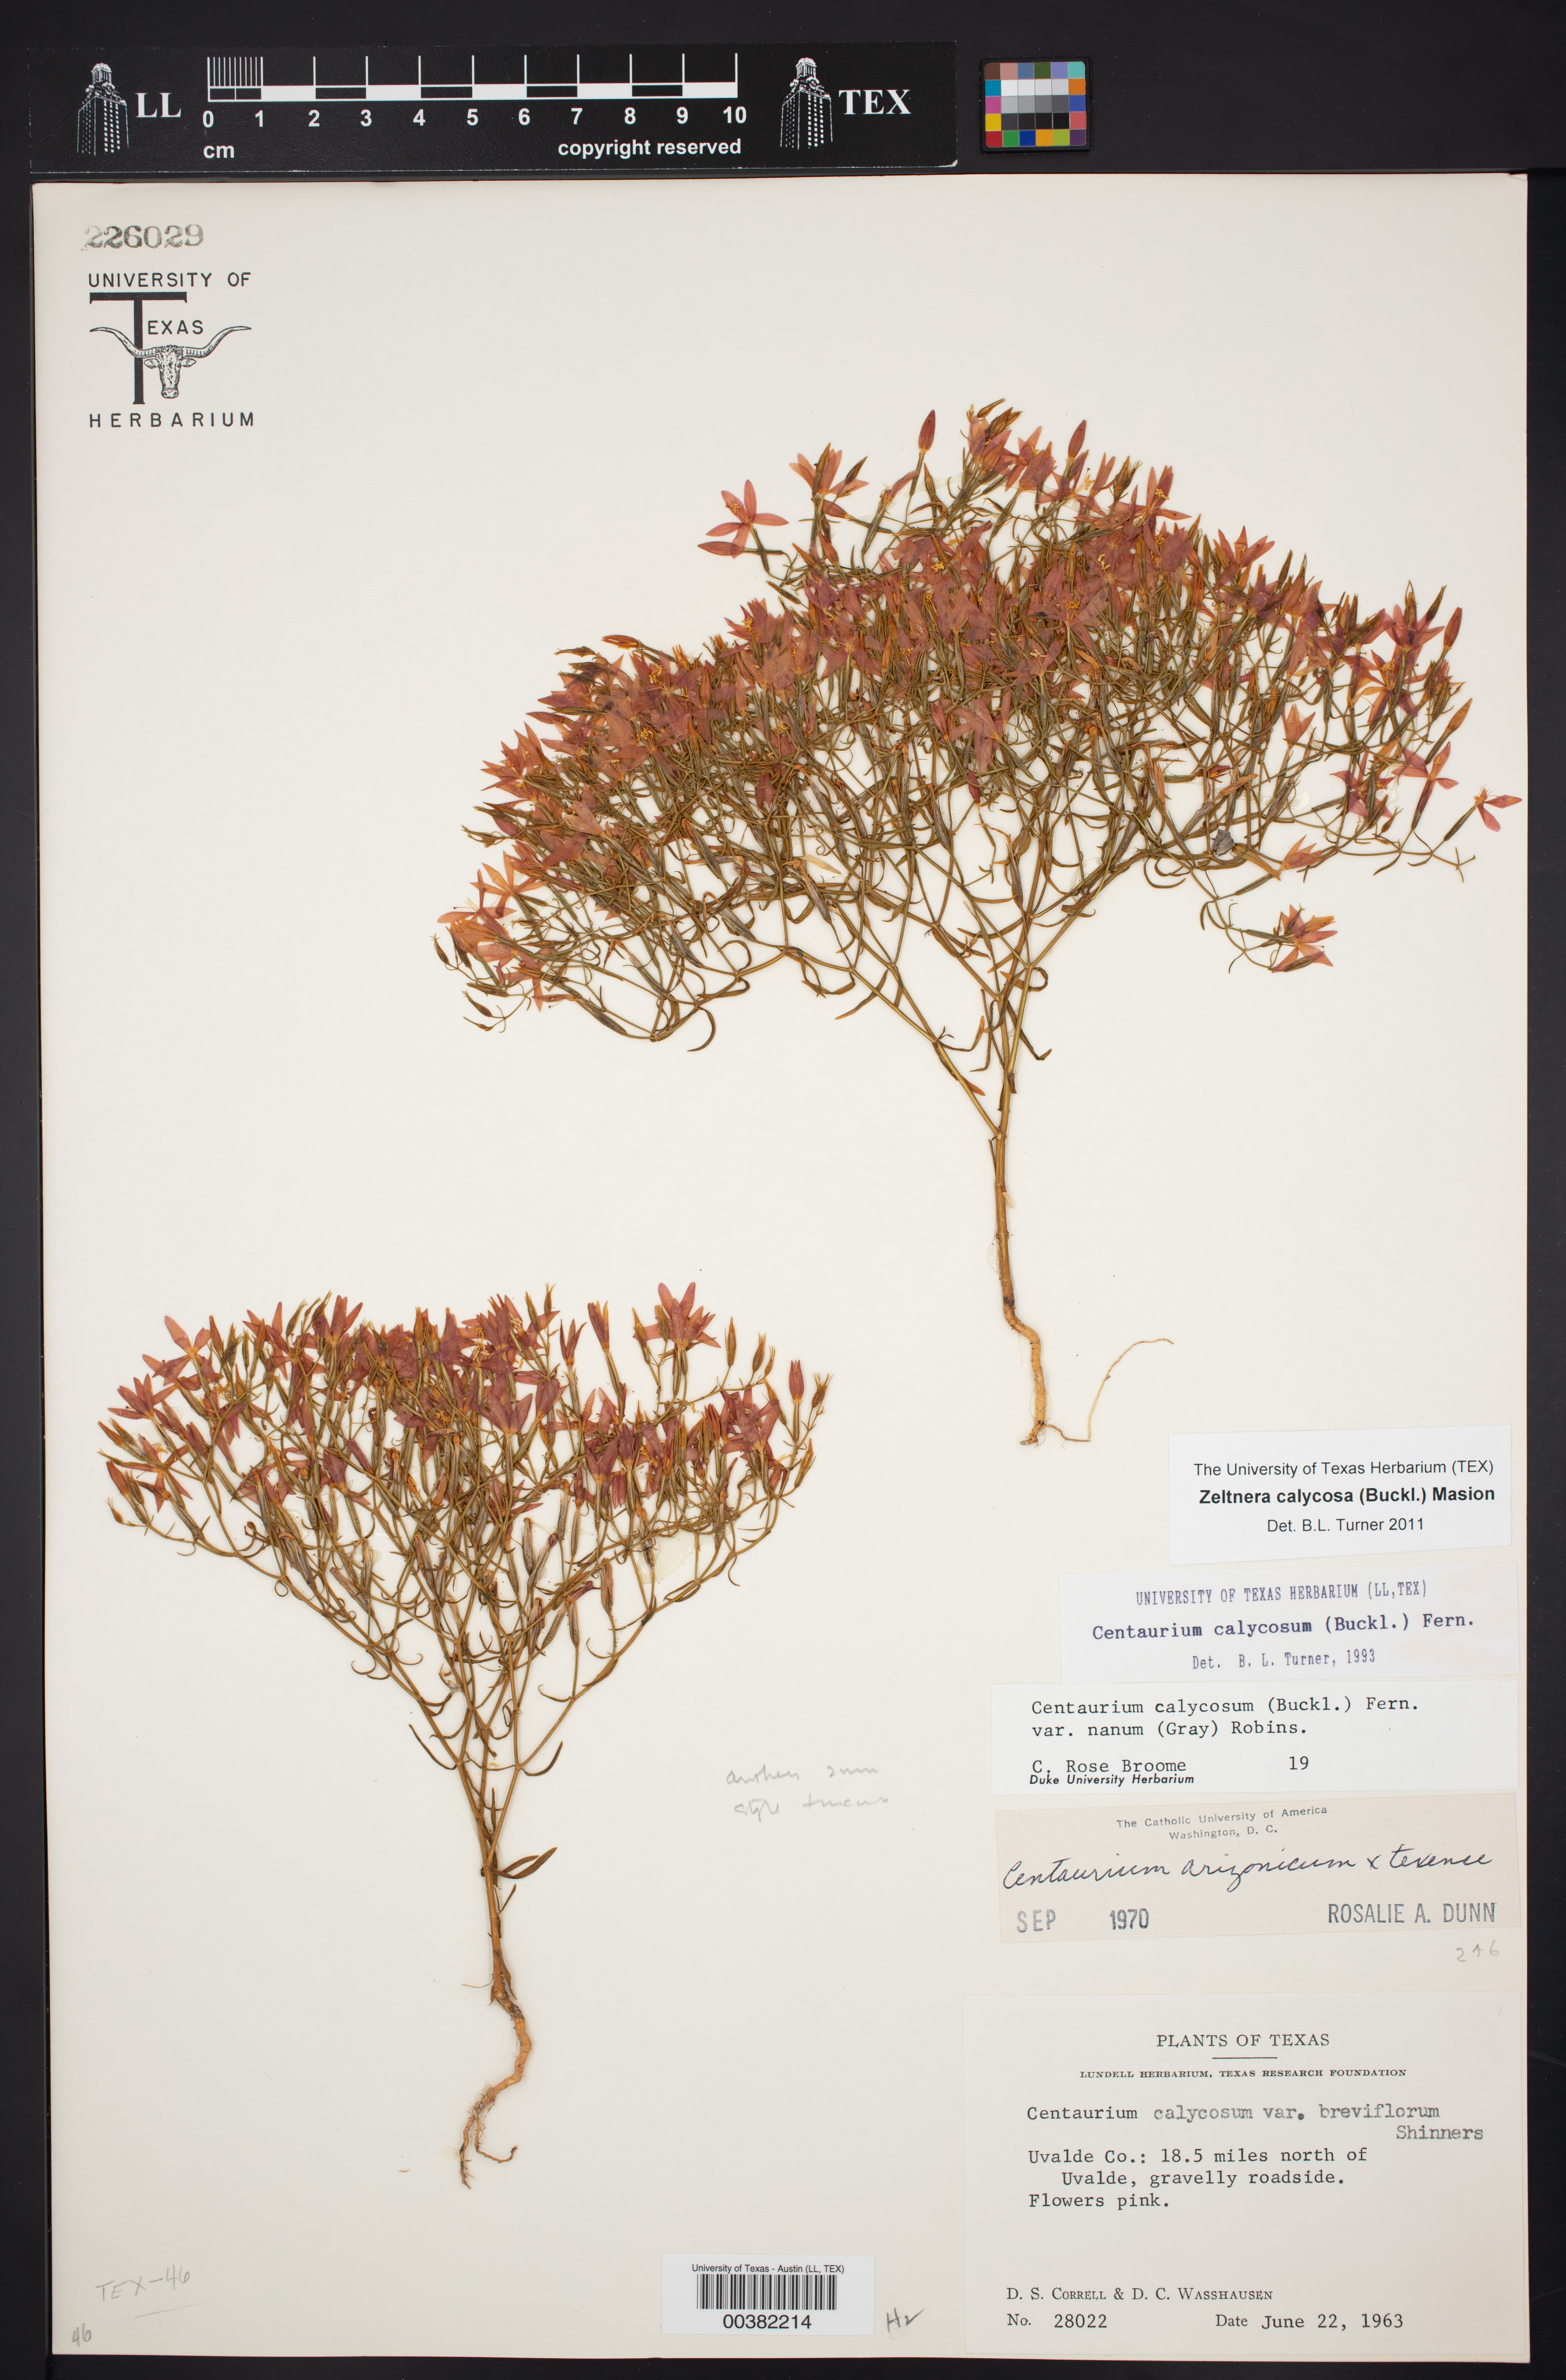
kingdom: Plantae
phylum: Tracheophyta
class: Magnoliopsida
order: Gentianales
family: Gentianaceae
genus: Zeltnera
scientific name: Zeltnera calycosa
